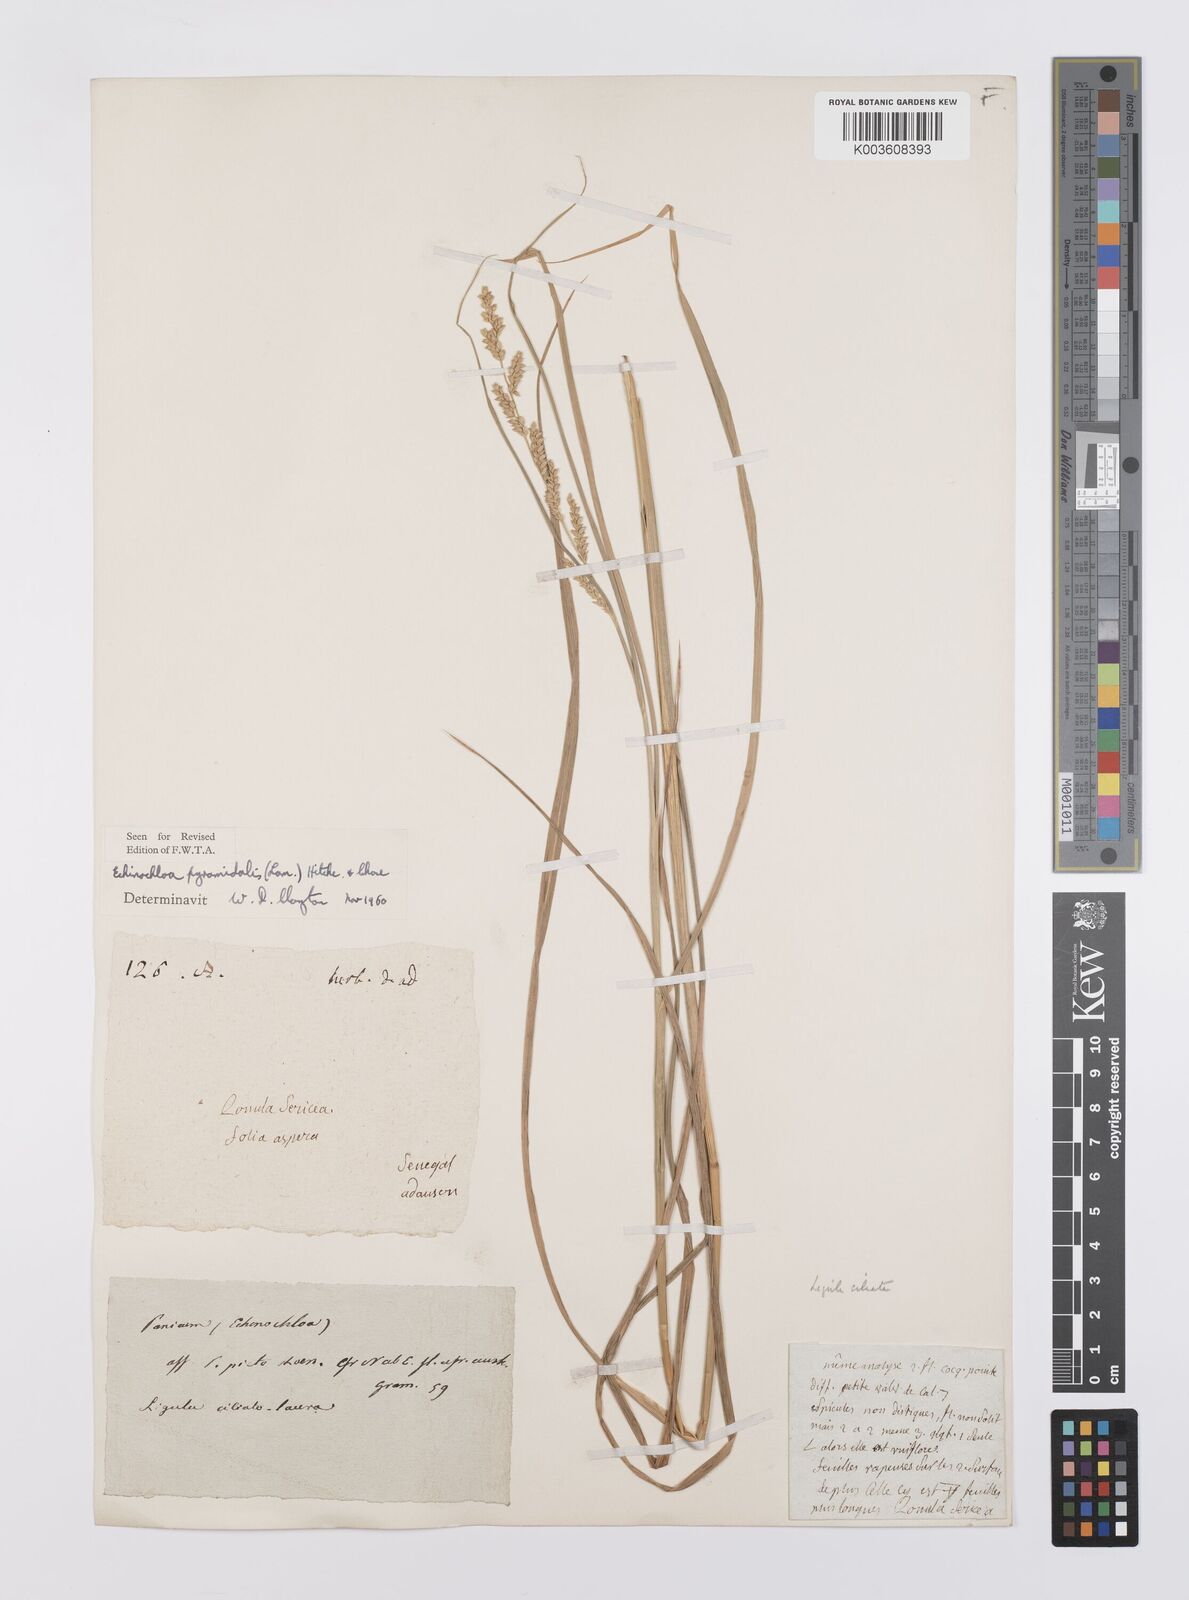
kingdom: Plantae
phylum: Tracheophyta
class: Liliopsida
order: Poales
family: Poaceae
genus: Echinochloa
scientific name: Echinochloa pyramidalis
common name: Antelope grass
